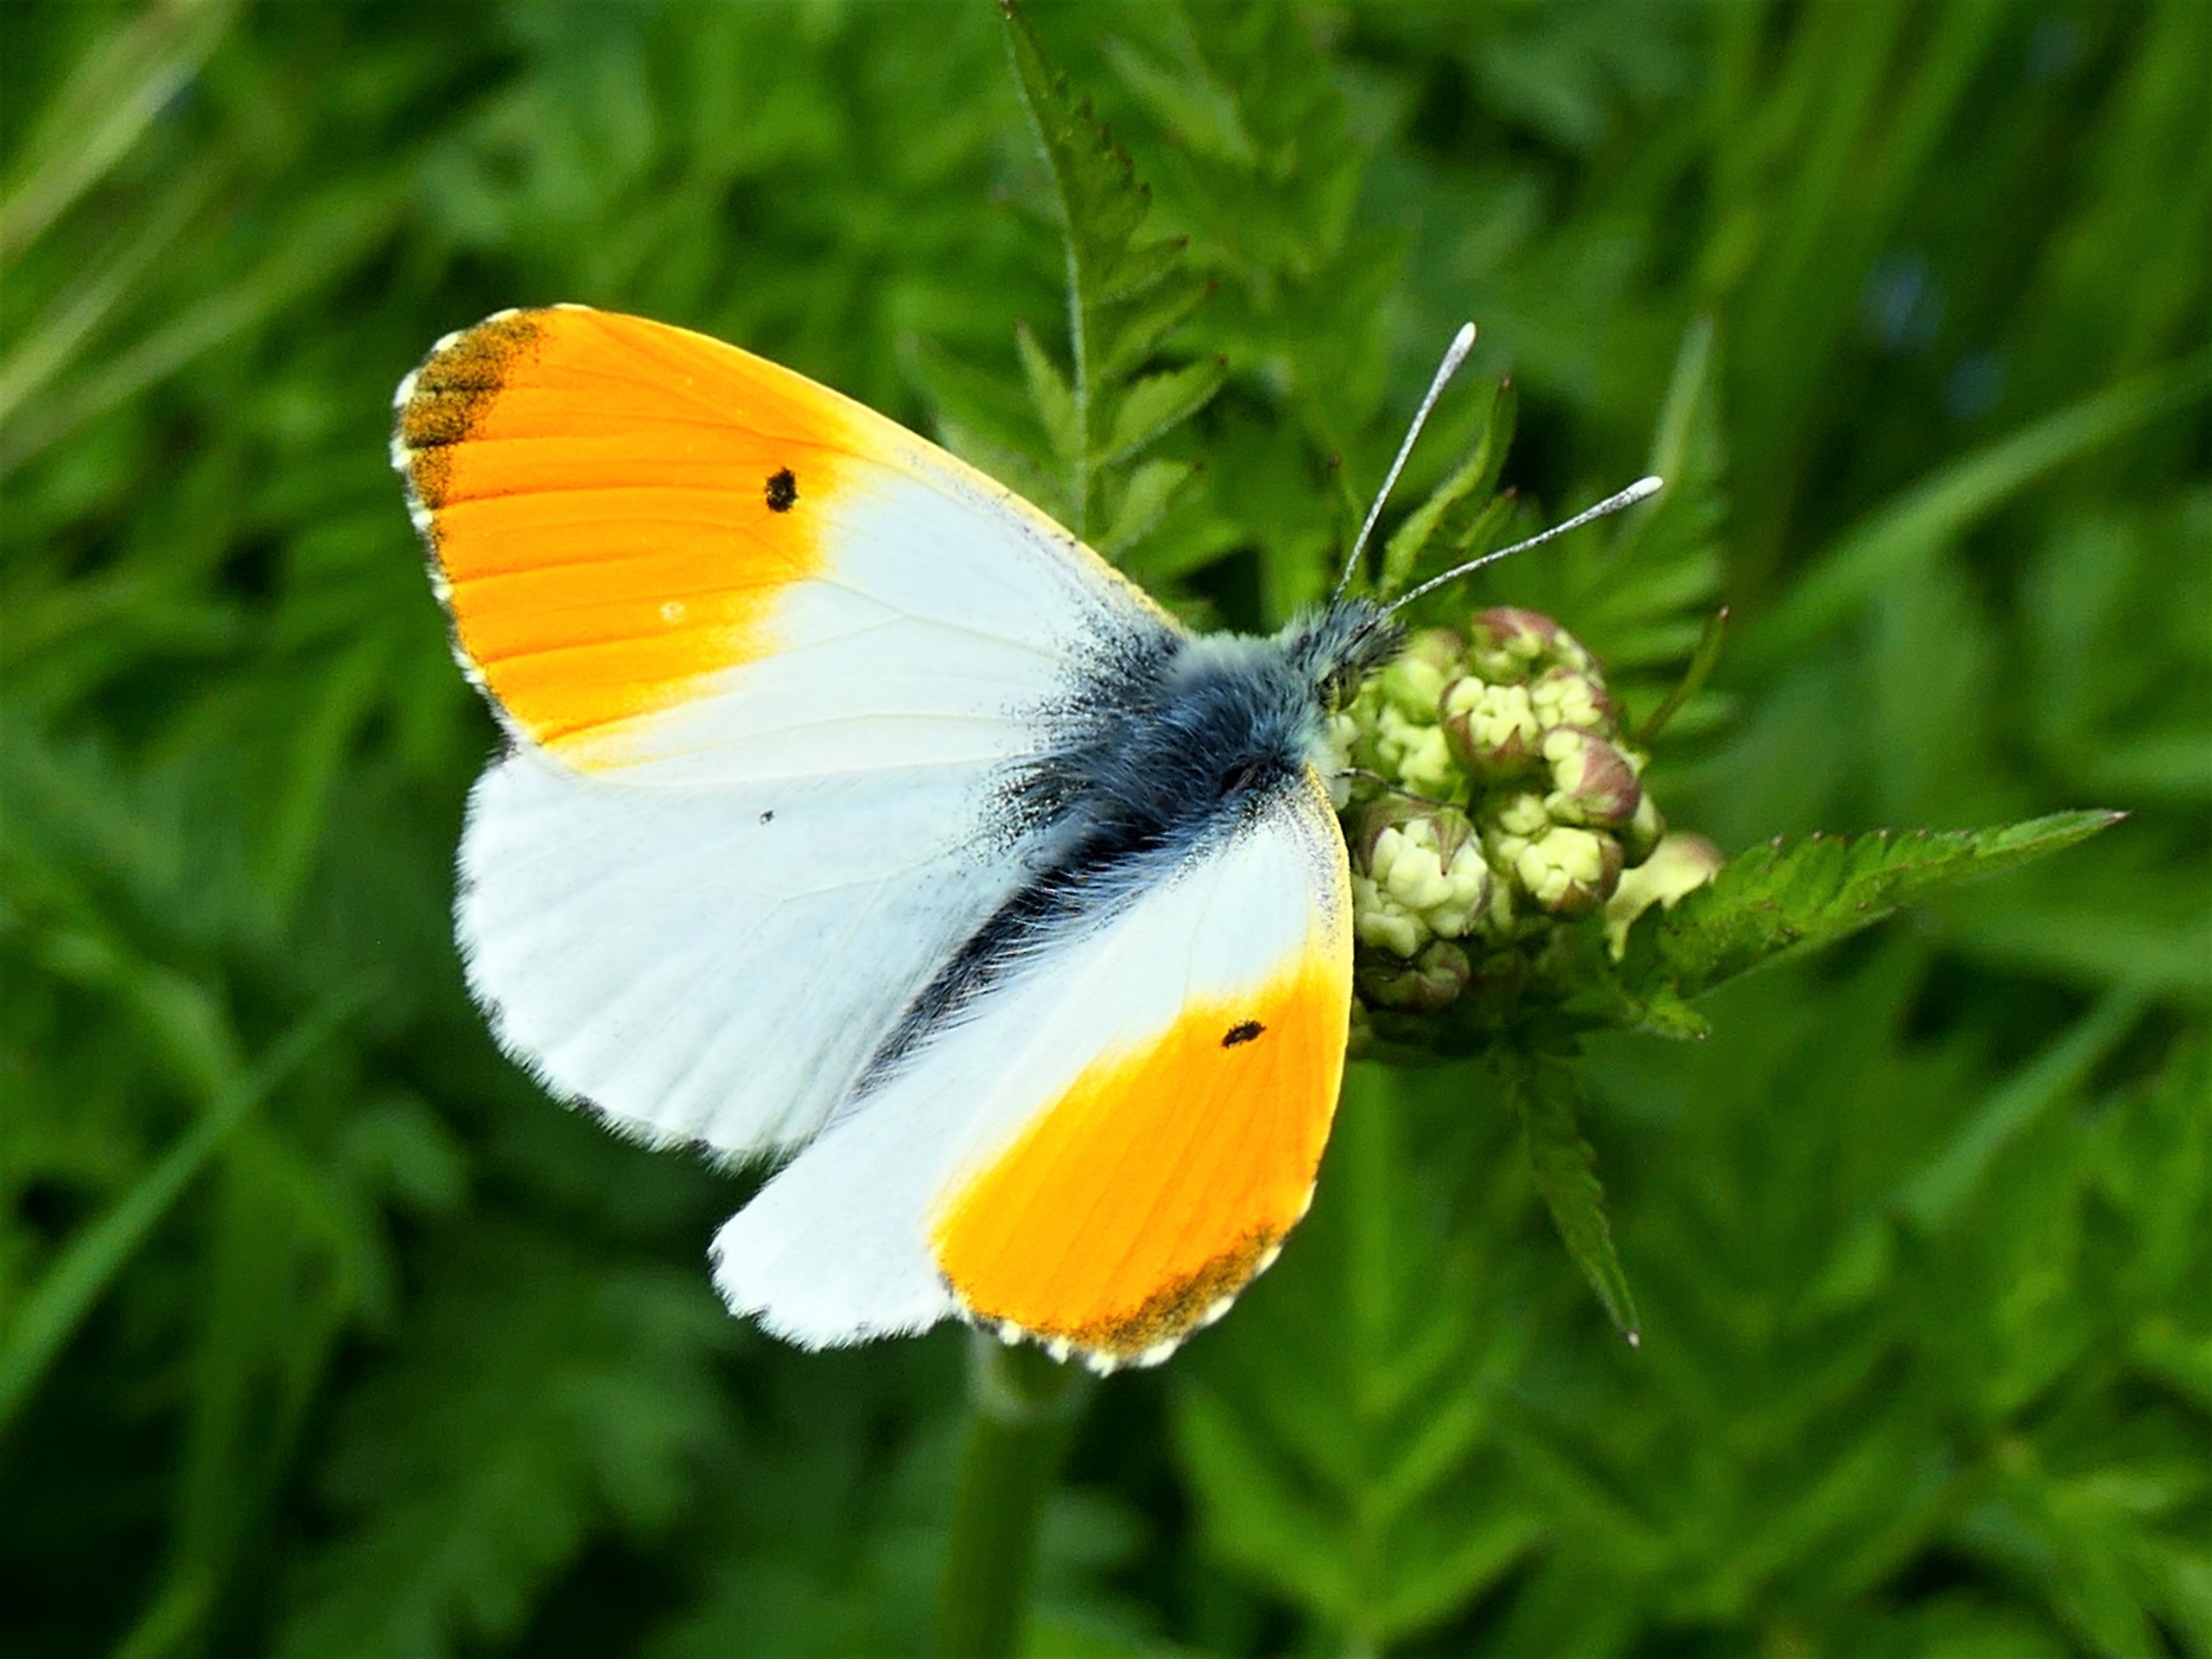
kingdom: Animalia
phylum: Arthropoda
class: Insecta
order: Lepidoptera
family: Pieridae
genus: Anthocharis
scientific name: Anthocharis cardamines
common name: Aurora
